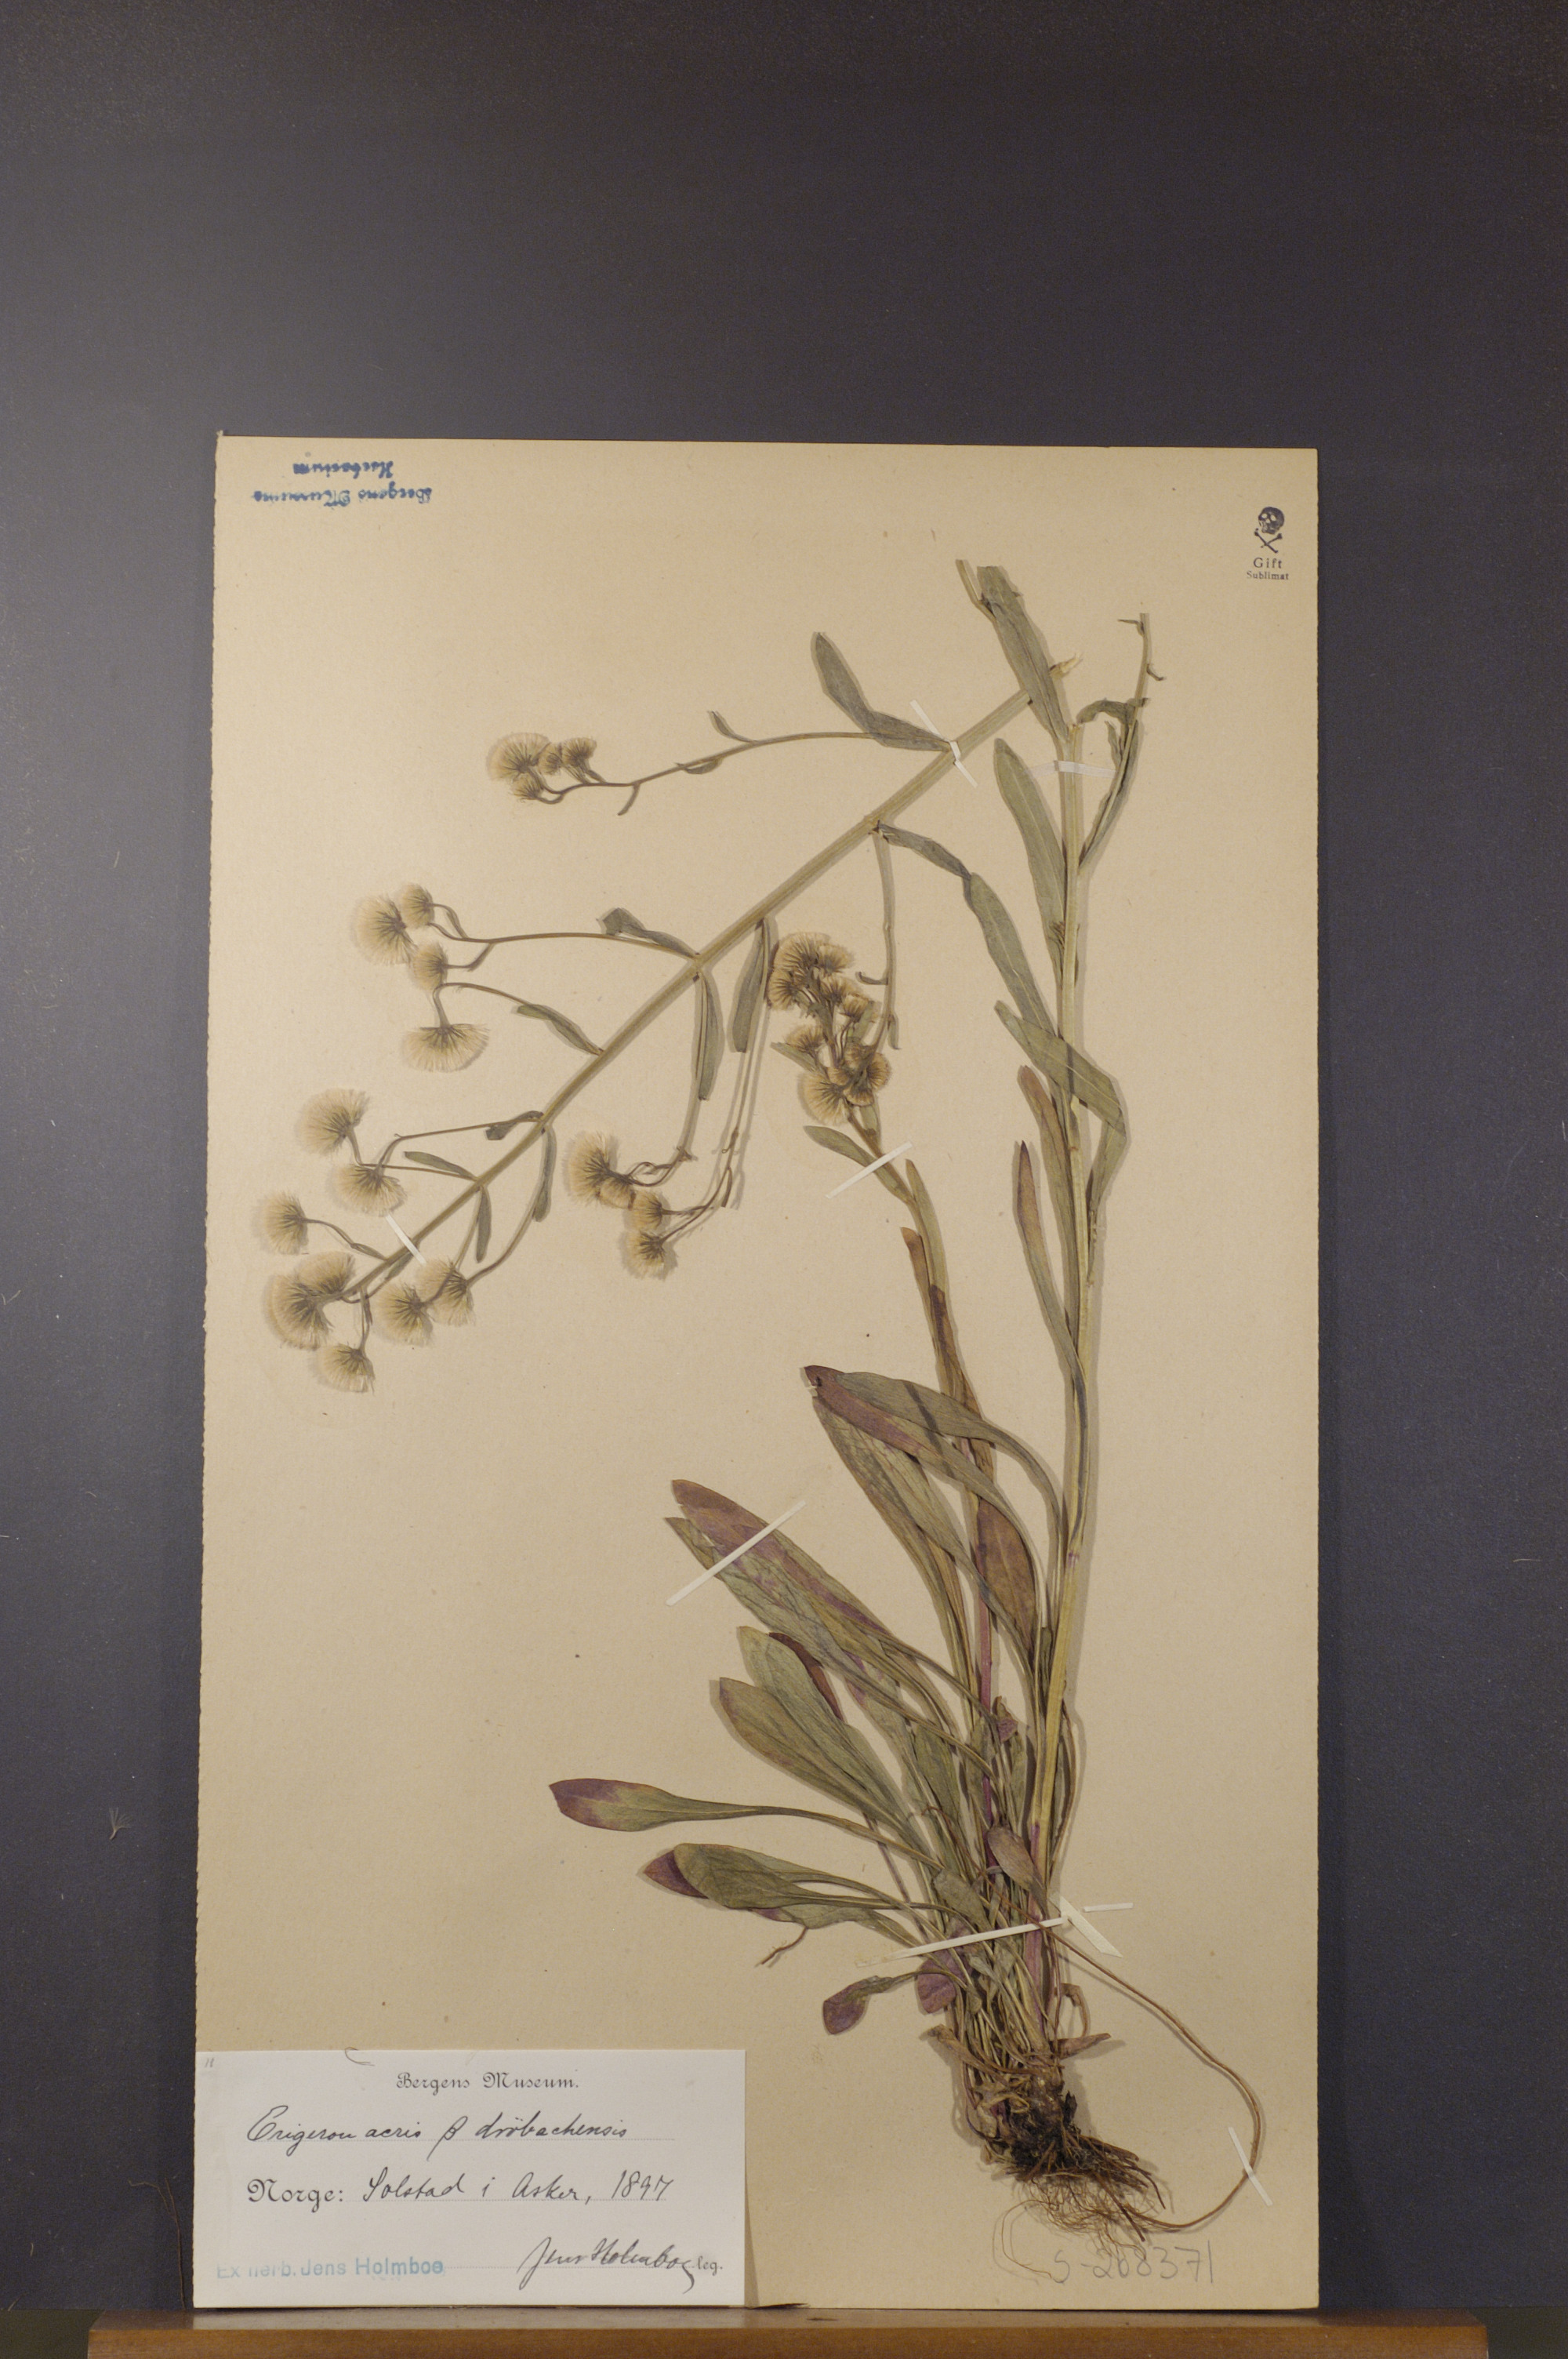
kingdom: Plantae
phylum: Tracheophyta
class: Magnoliopsida
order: Asterales
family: Asteraceae
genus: Erigeron
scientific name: Erigeron droebachiensis
